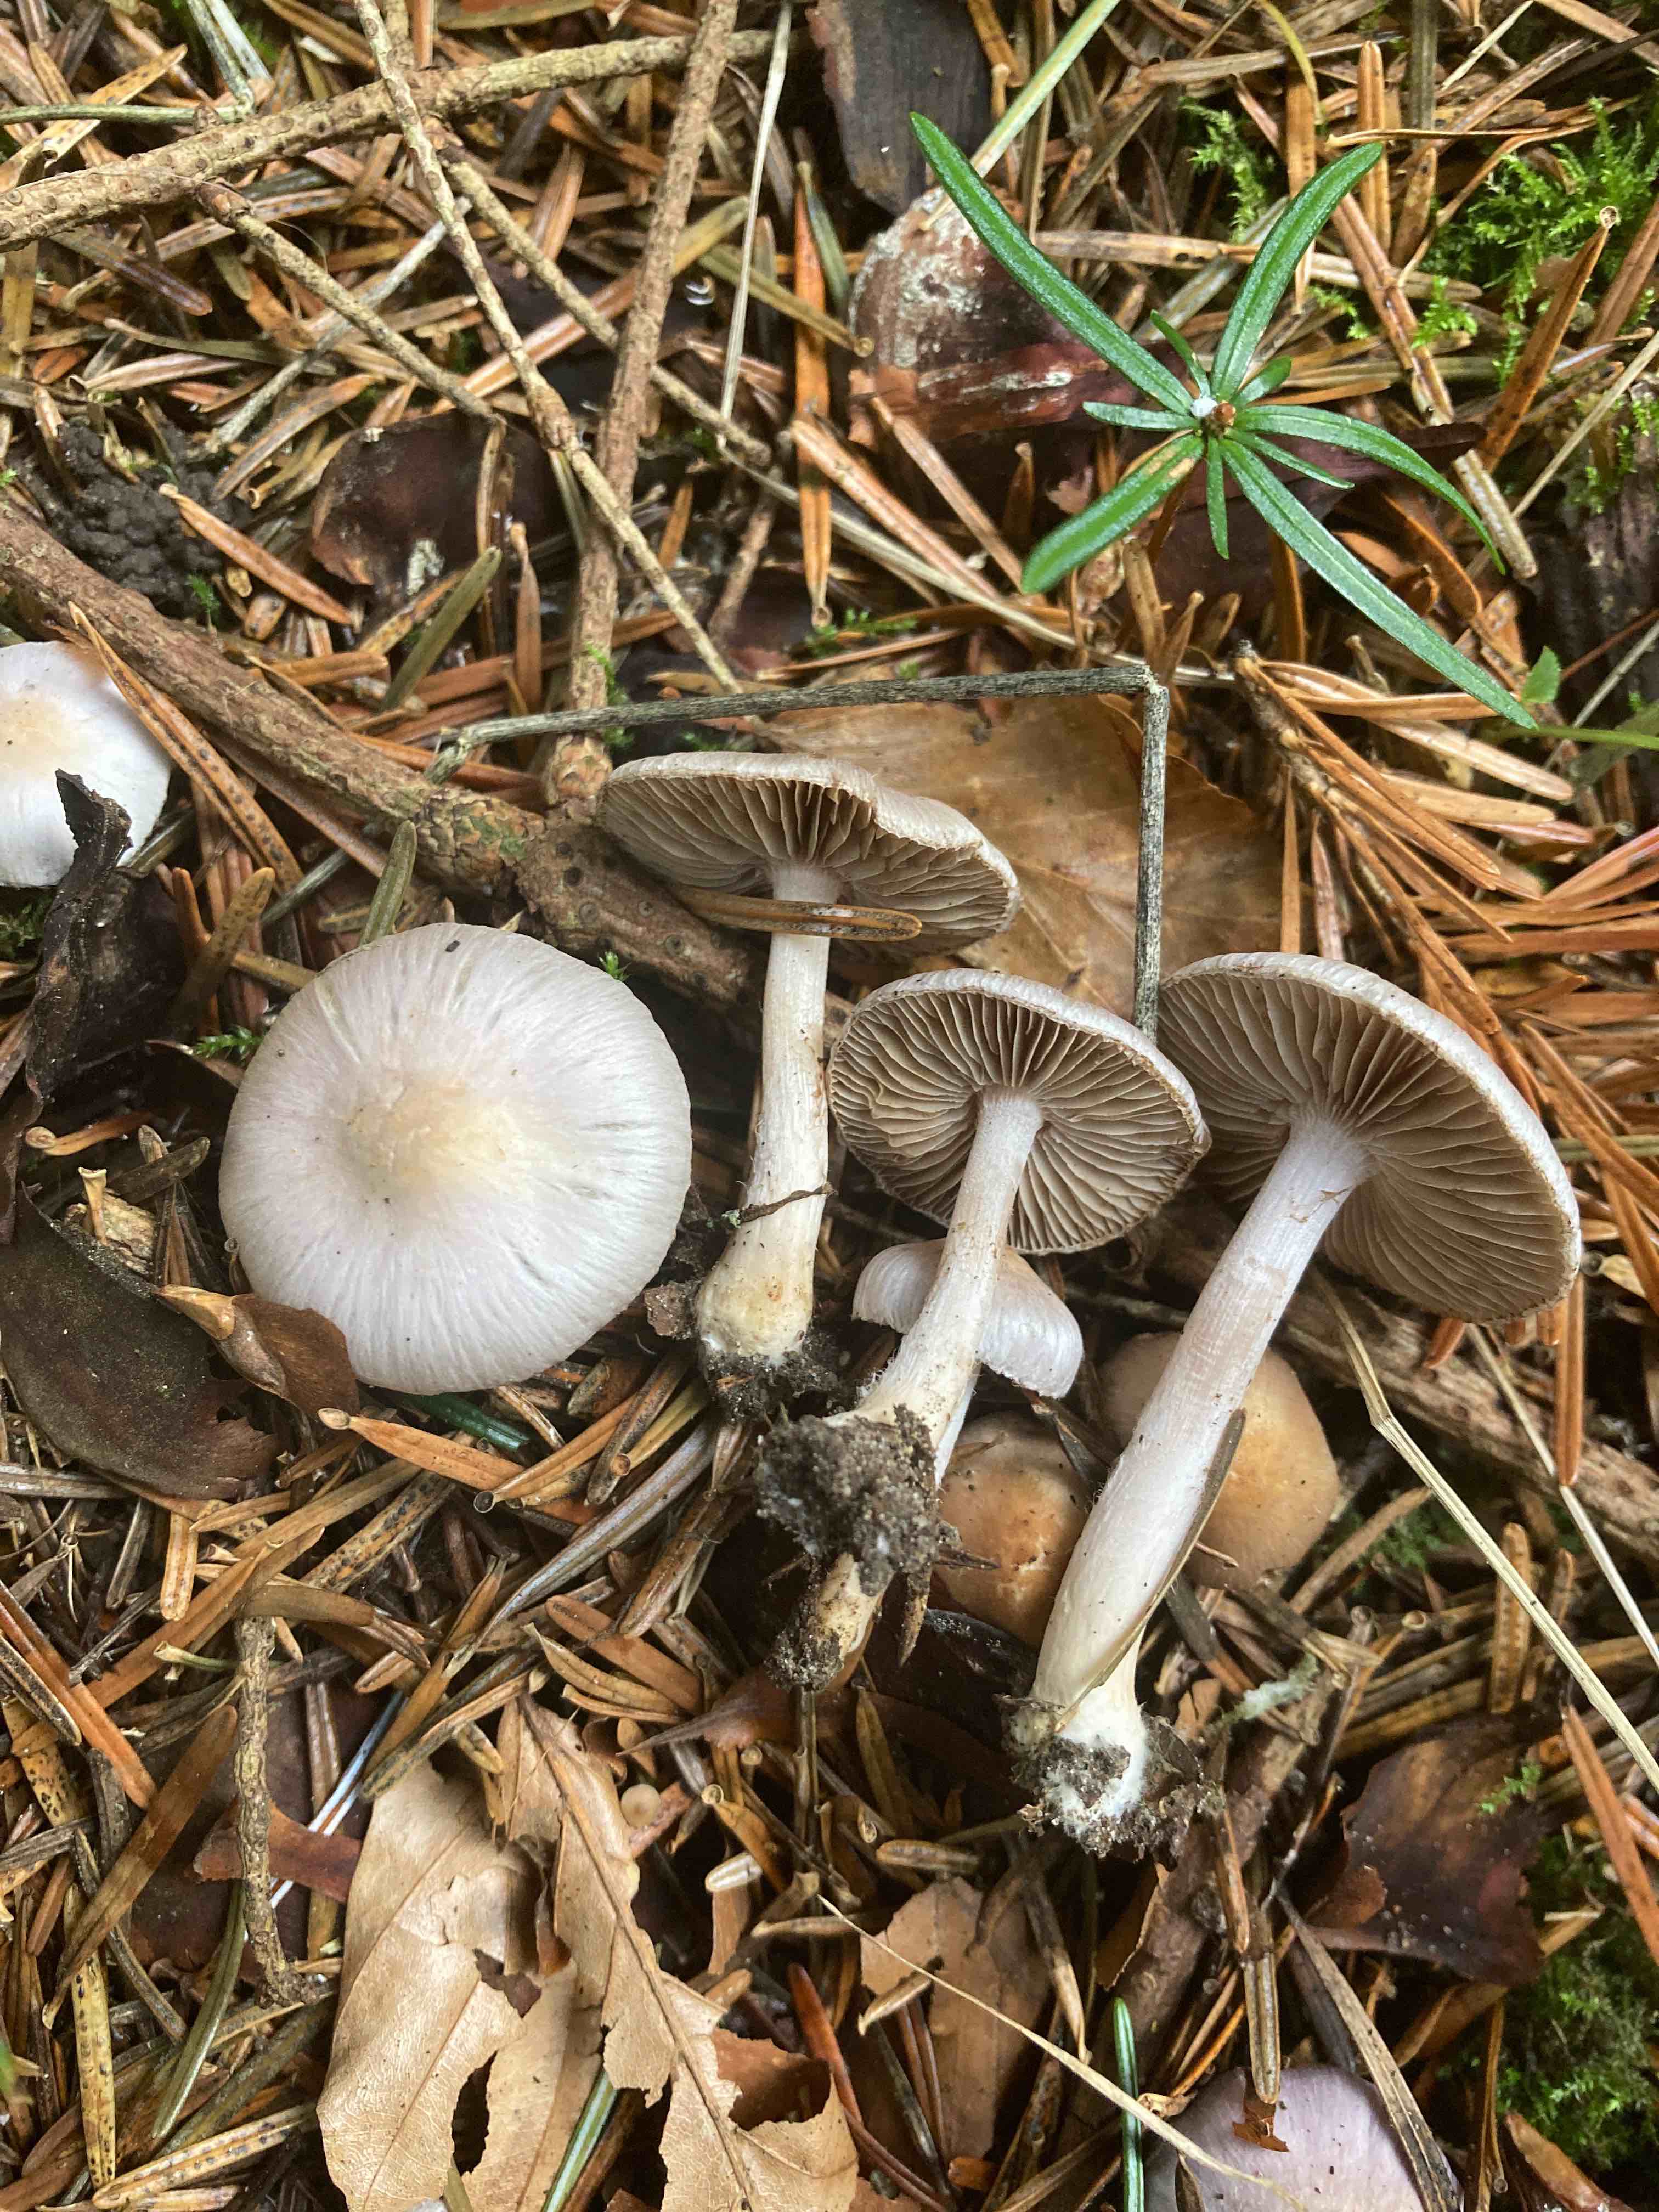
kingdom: Fungi
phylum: Basidiomycota
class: Agaricomycetes
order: Agaricales
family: Inocybaceae
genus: Inocybe
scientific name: Inocybe geophylla
